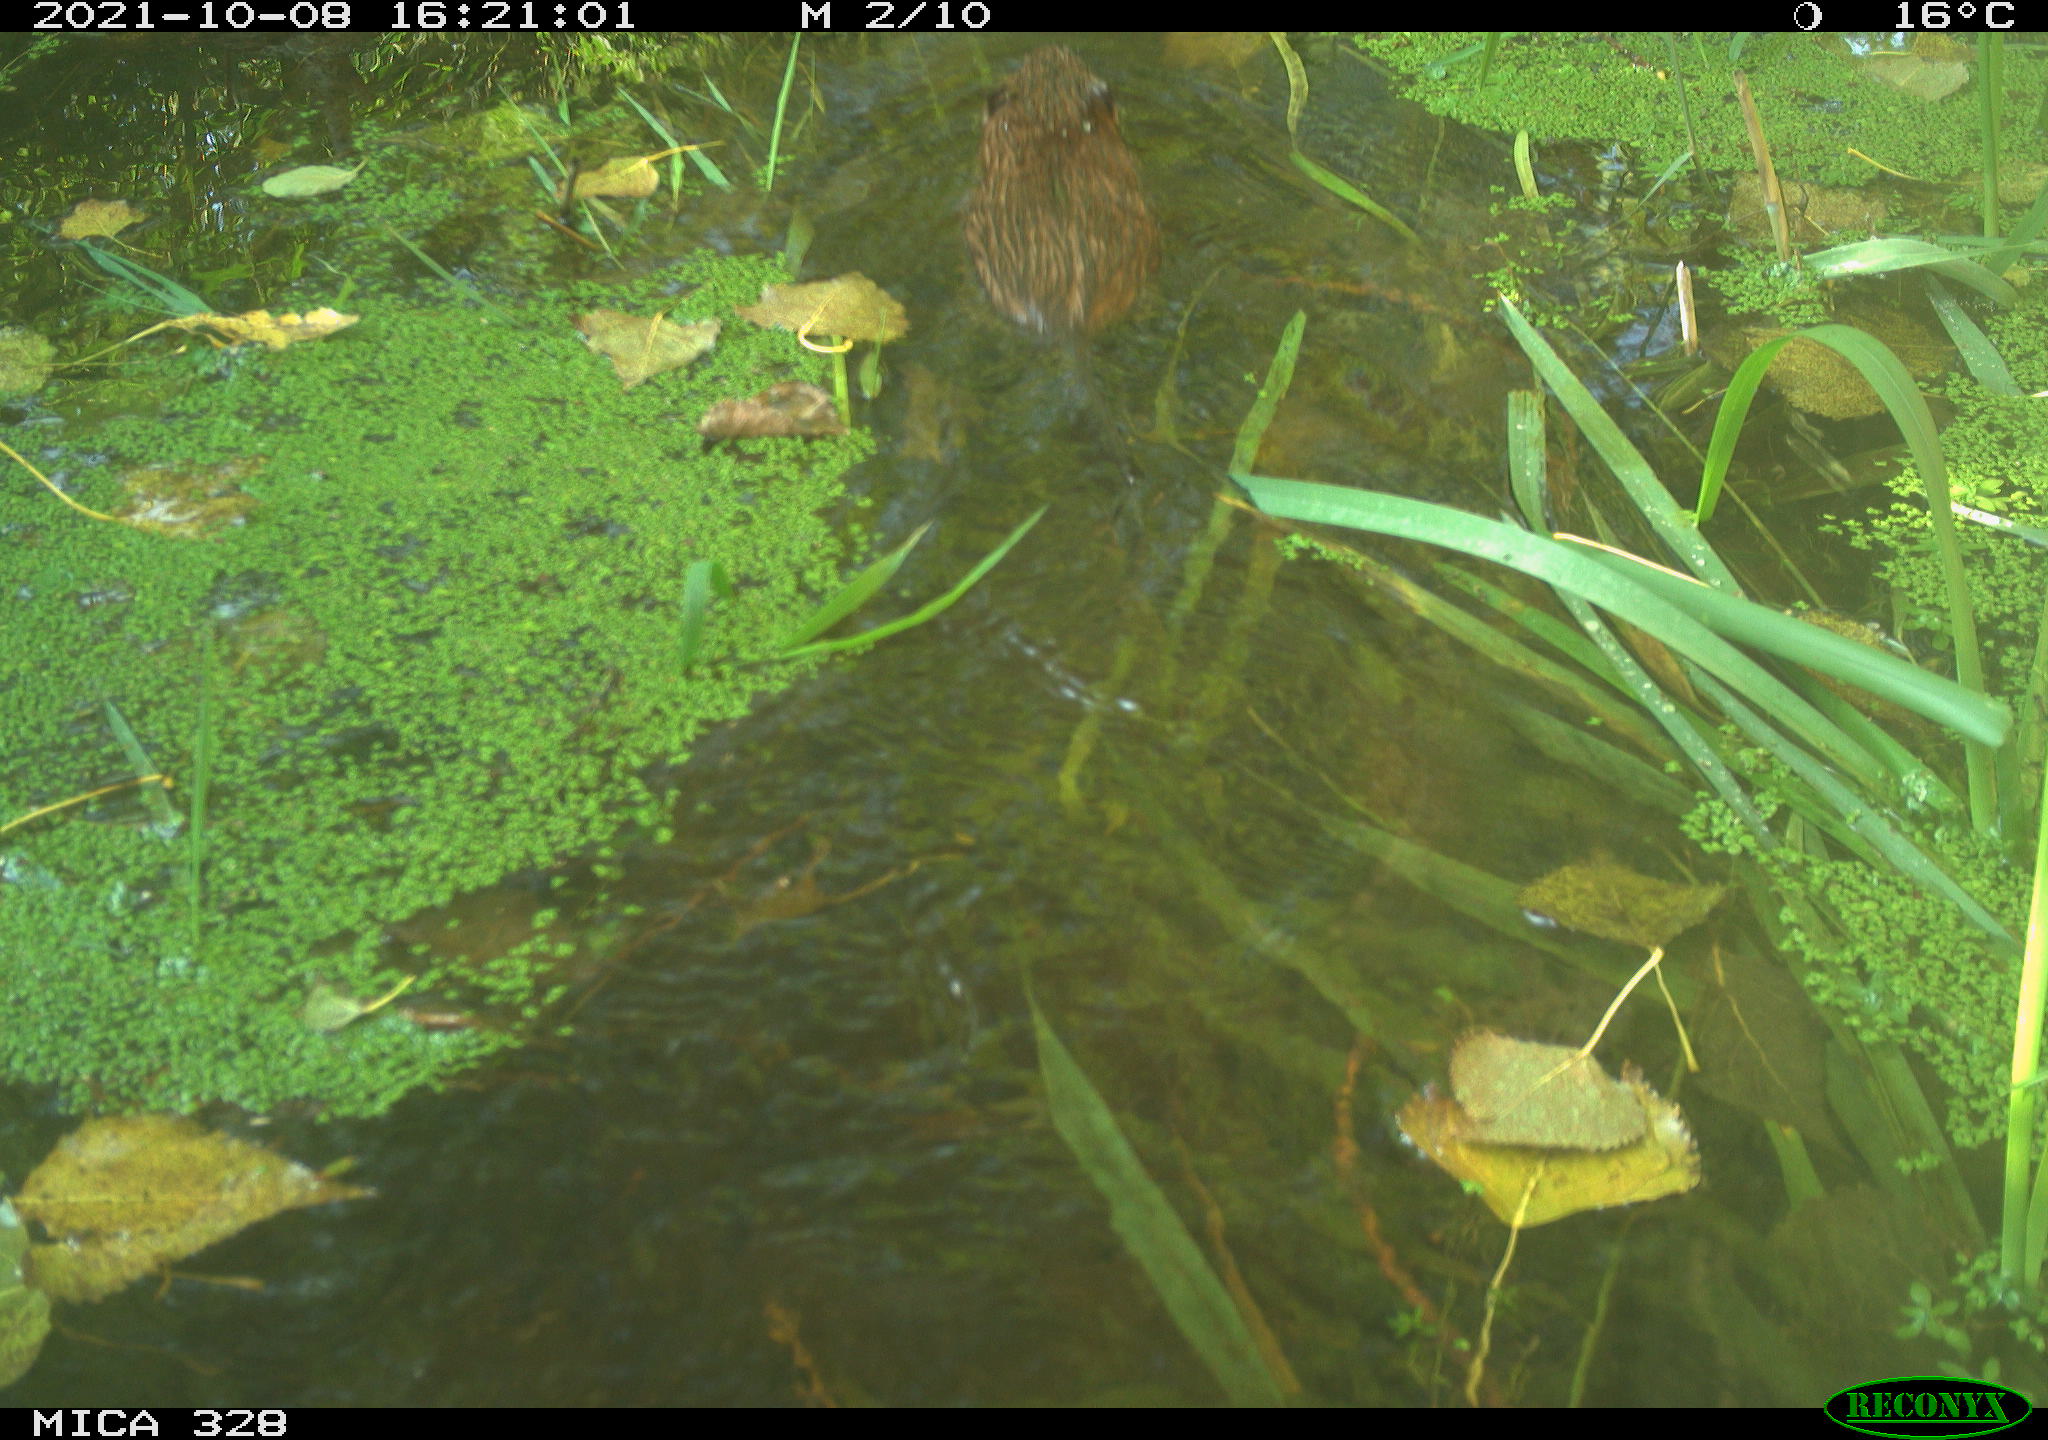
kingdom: Animalia
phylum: Chordata
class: Mammalia
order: Rodentia
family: Cricetidae
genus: Ondatra
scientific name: Ondatra zibethicus
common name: Muskrat
